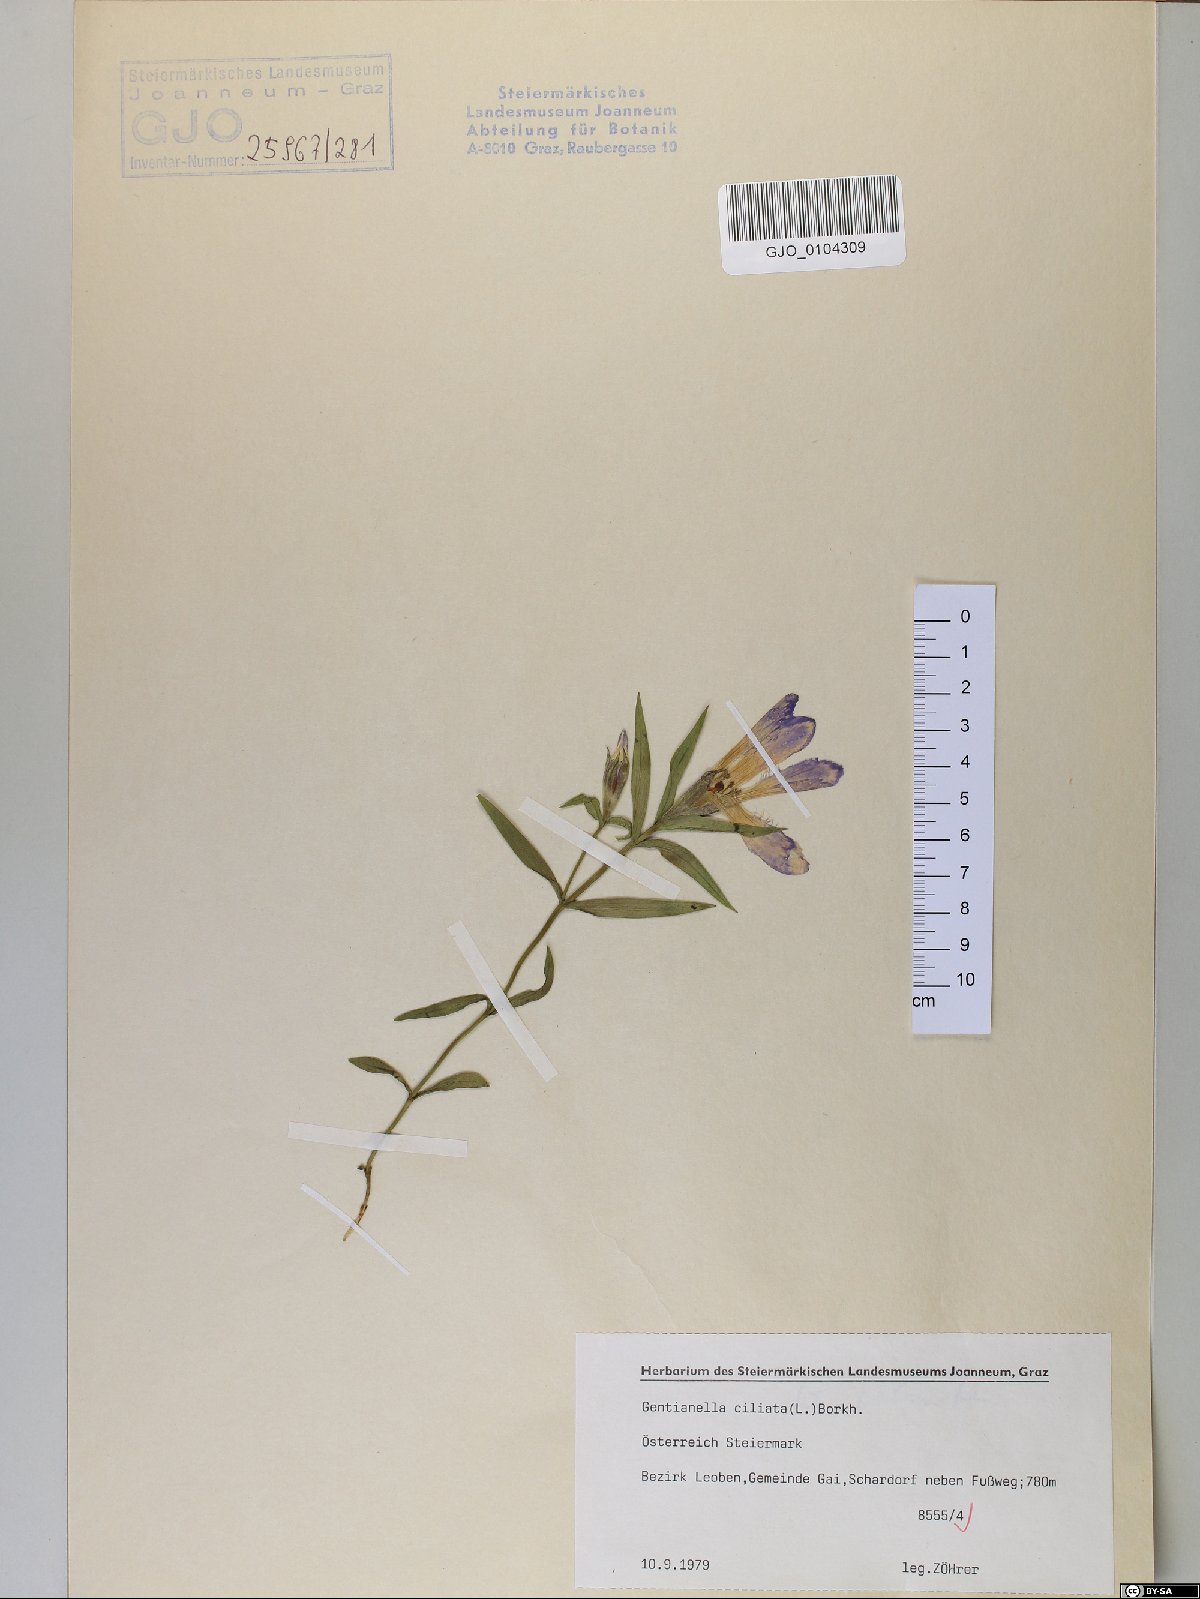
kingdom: Plantae
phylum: Tracheophyta
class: Magnoliopsida
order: Gentianales
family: Gentianaceae
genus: Gentianopsis
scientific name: Gentianopsis ciliata
